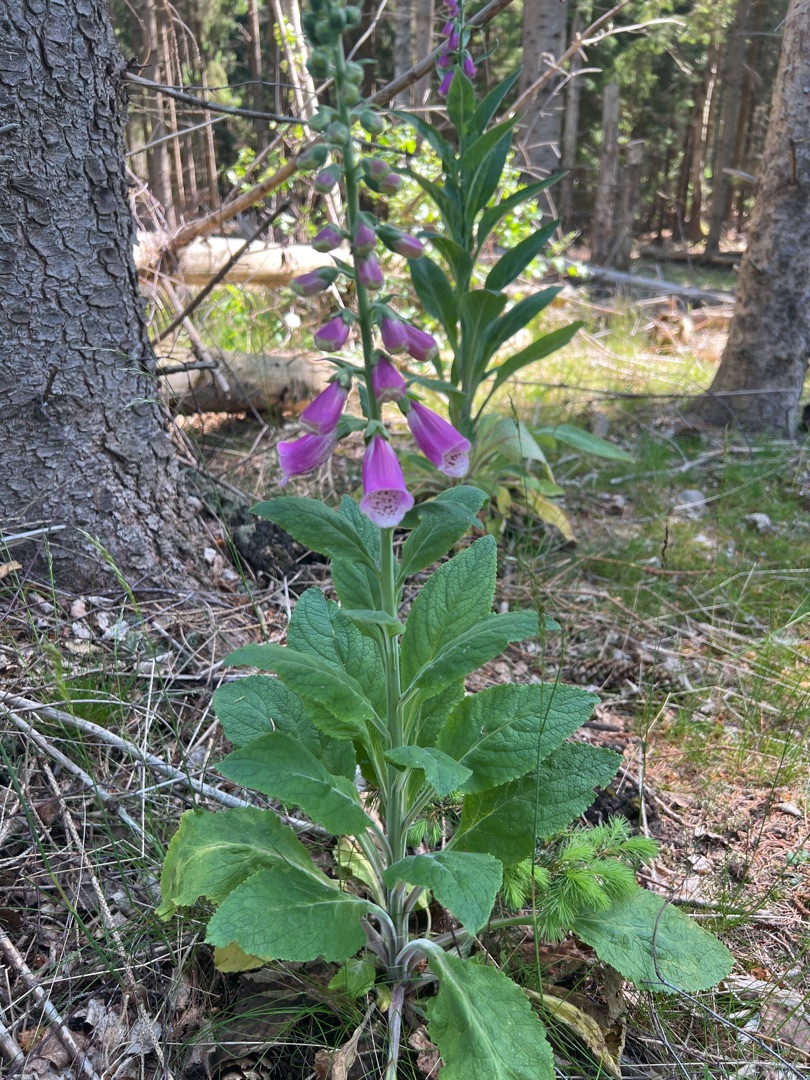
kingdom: Plantae
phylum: Tracheophyta
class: Magnoliopsida
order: Lamiales
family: Plantaginaceae
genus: Digitalis
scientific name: Digitalis purpurea
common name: Almindelig fingerbøl
